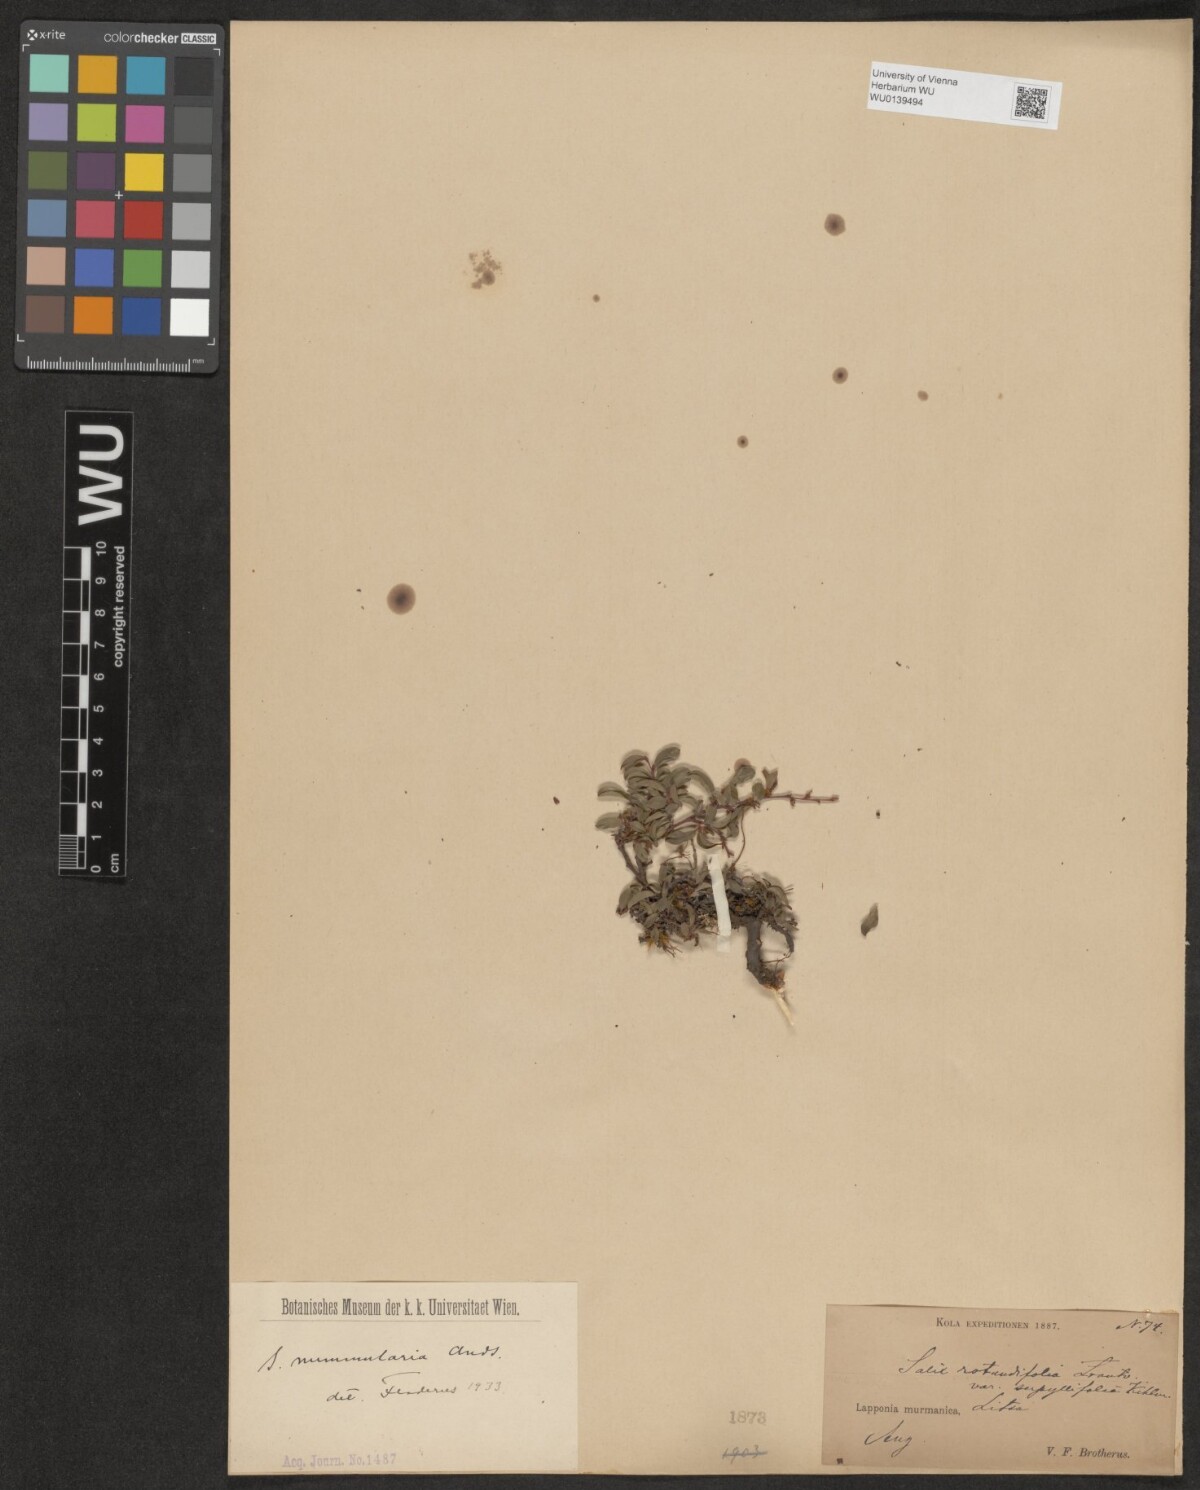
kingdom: Plantae
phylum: Tracheophyta
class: Magnoliopsida
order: Malpighiales
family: Salicaceae
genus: Salix
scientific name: Salix rotundifolia
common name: Least willow
